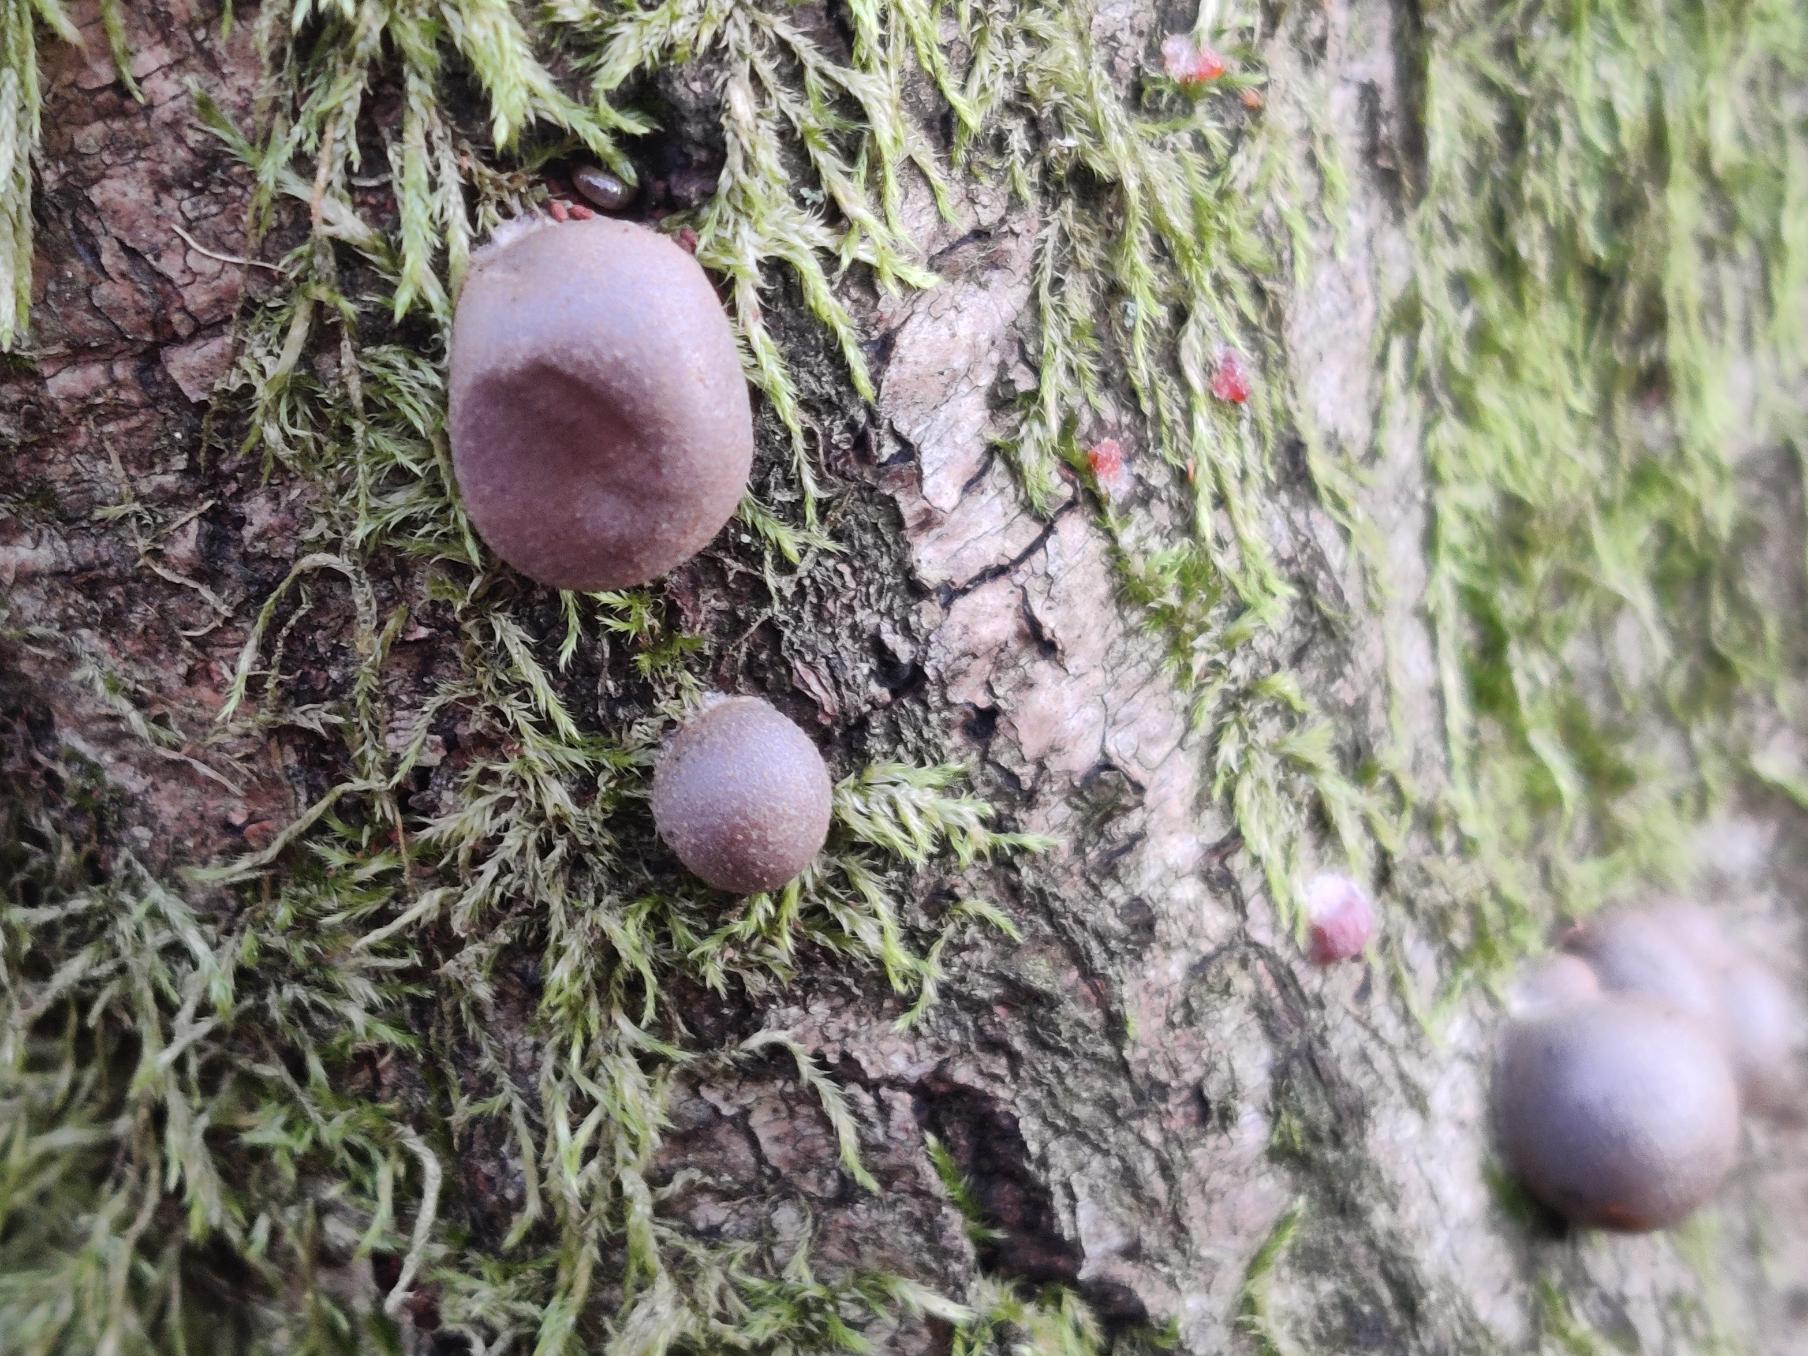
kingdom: Protozoa
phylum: Mycetozoa
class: Myxomycetes
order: Cribrariales
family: Tubiferaceae
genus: Lycogala
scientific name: Lycogala epidendrum
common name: Almindelig rødært
